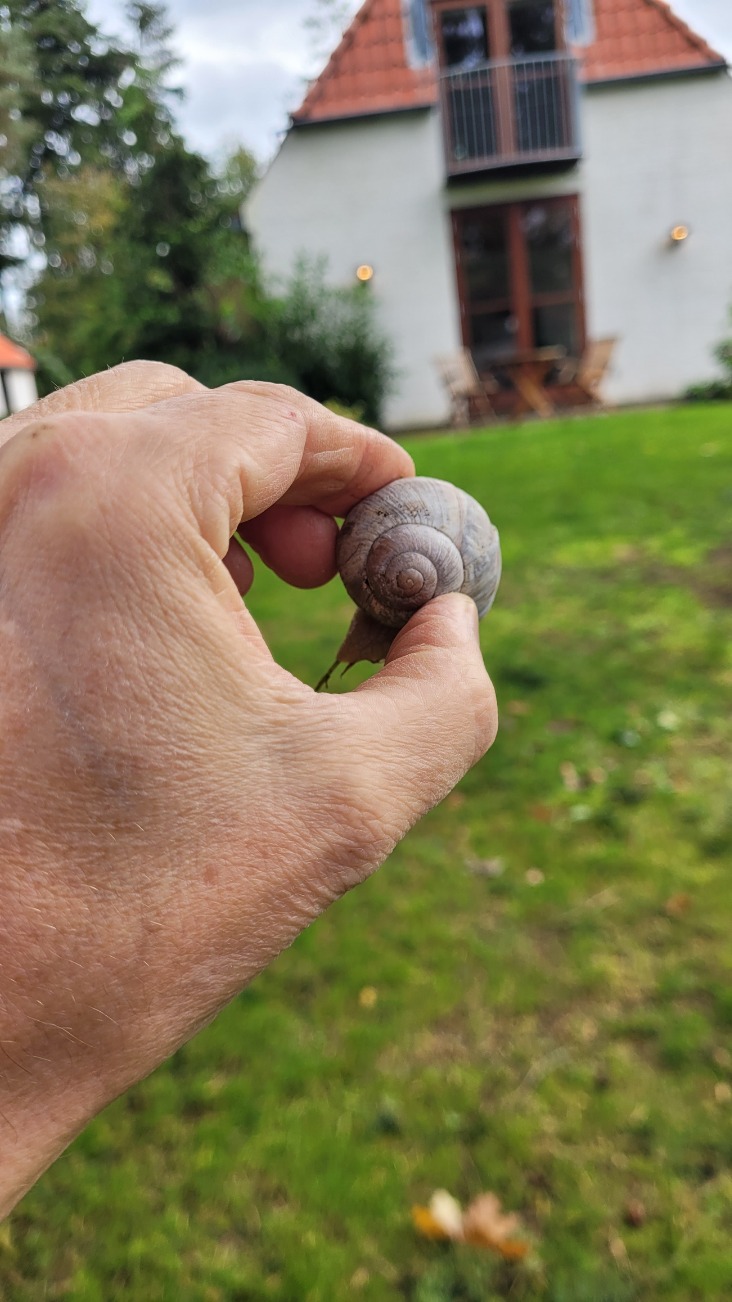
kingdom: Animalia
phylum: Mollusca
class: Gastropoda
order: Stylommatophora
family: Helicidae
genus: Helix
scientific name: Helix pomatia
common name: Vinbjergsnegl
